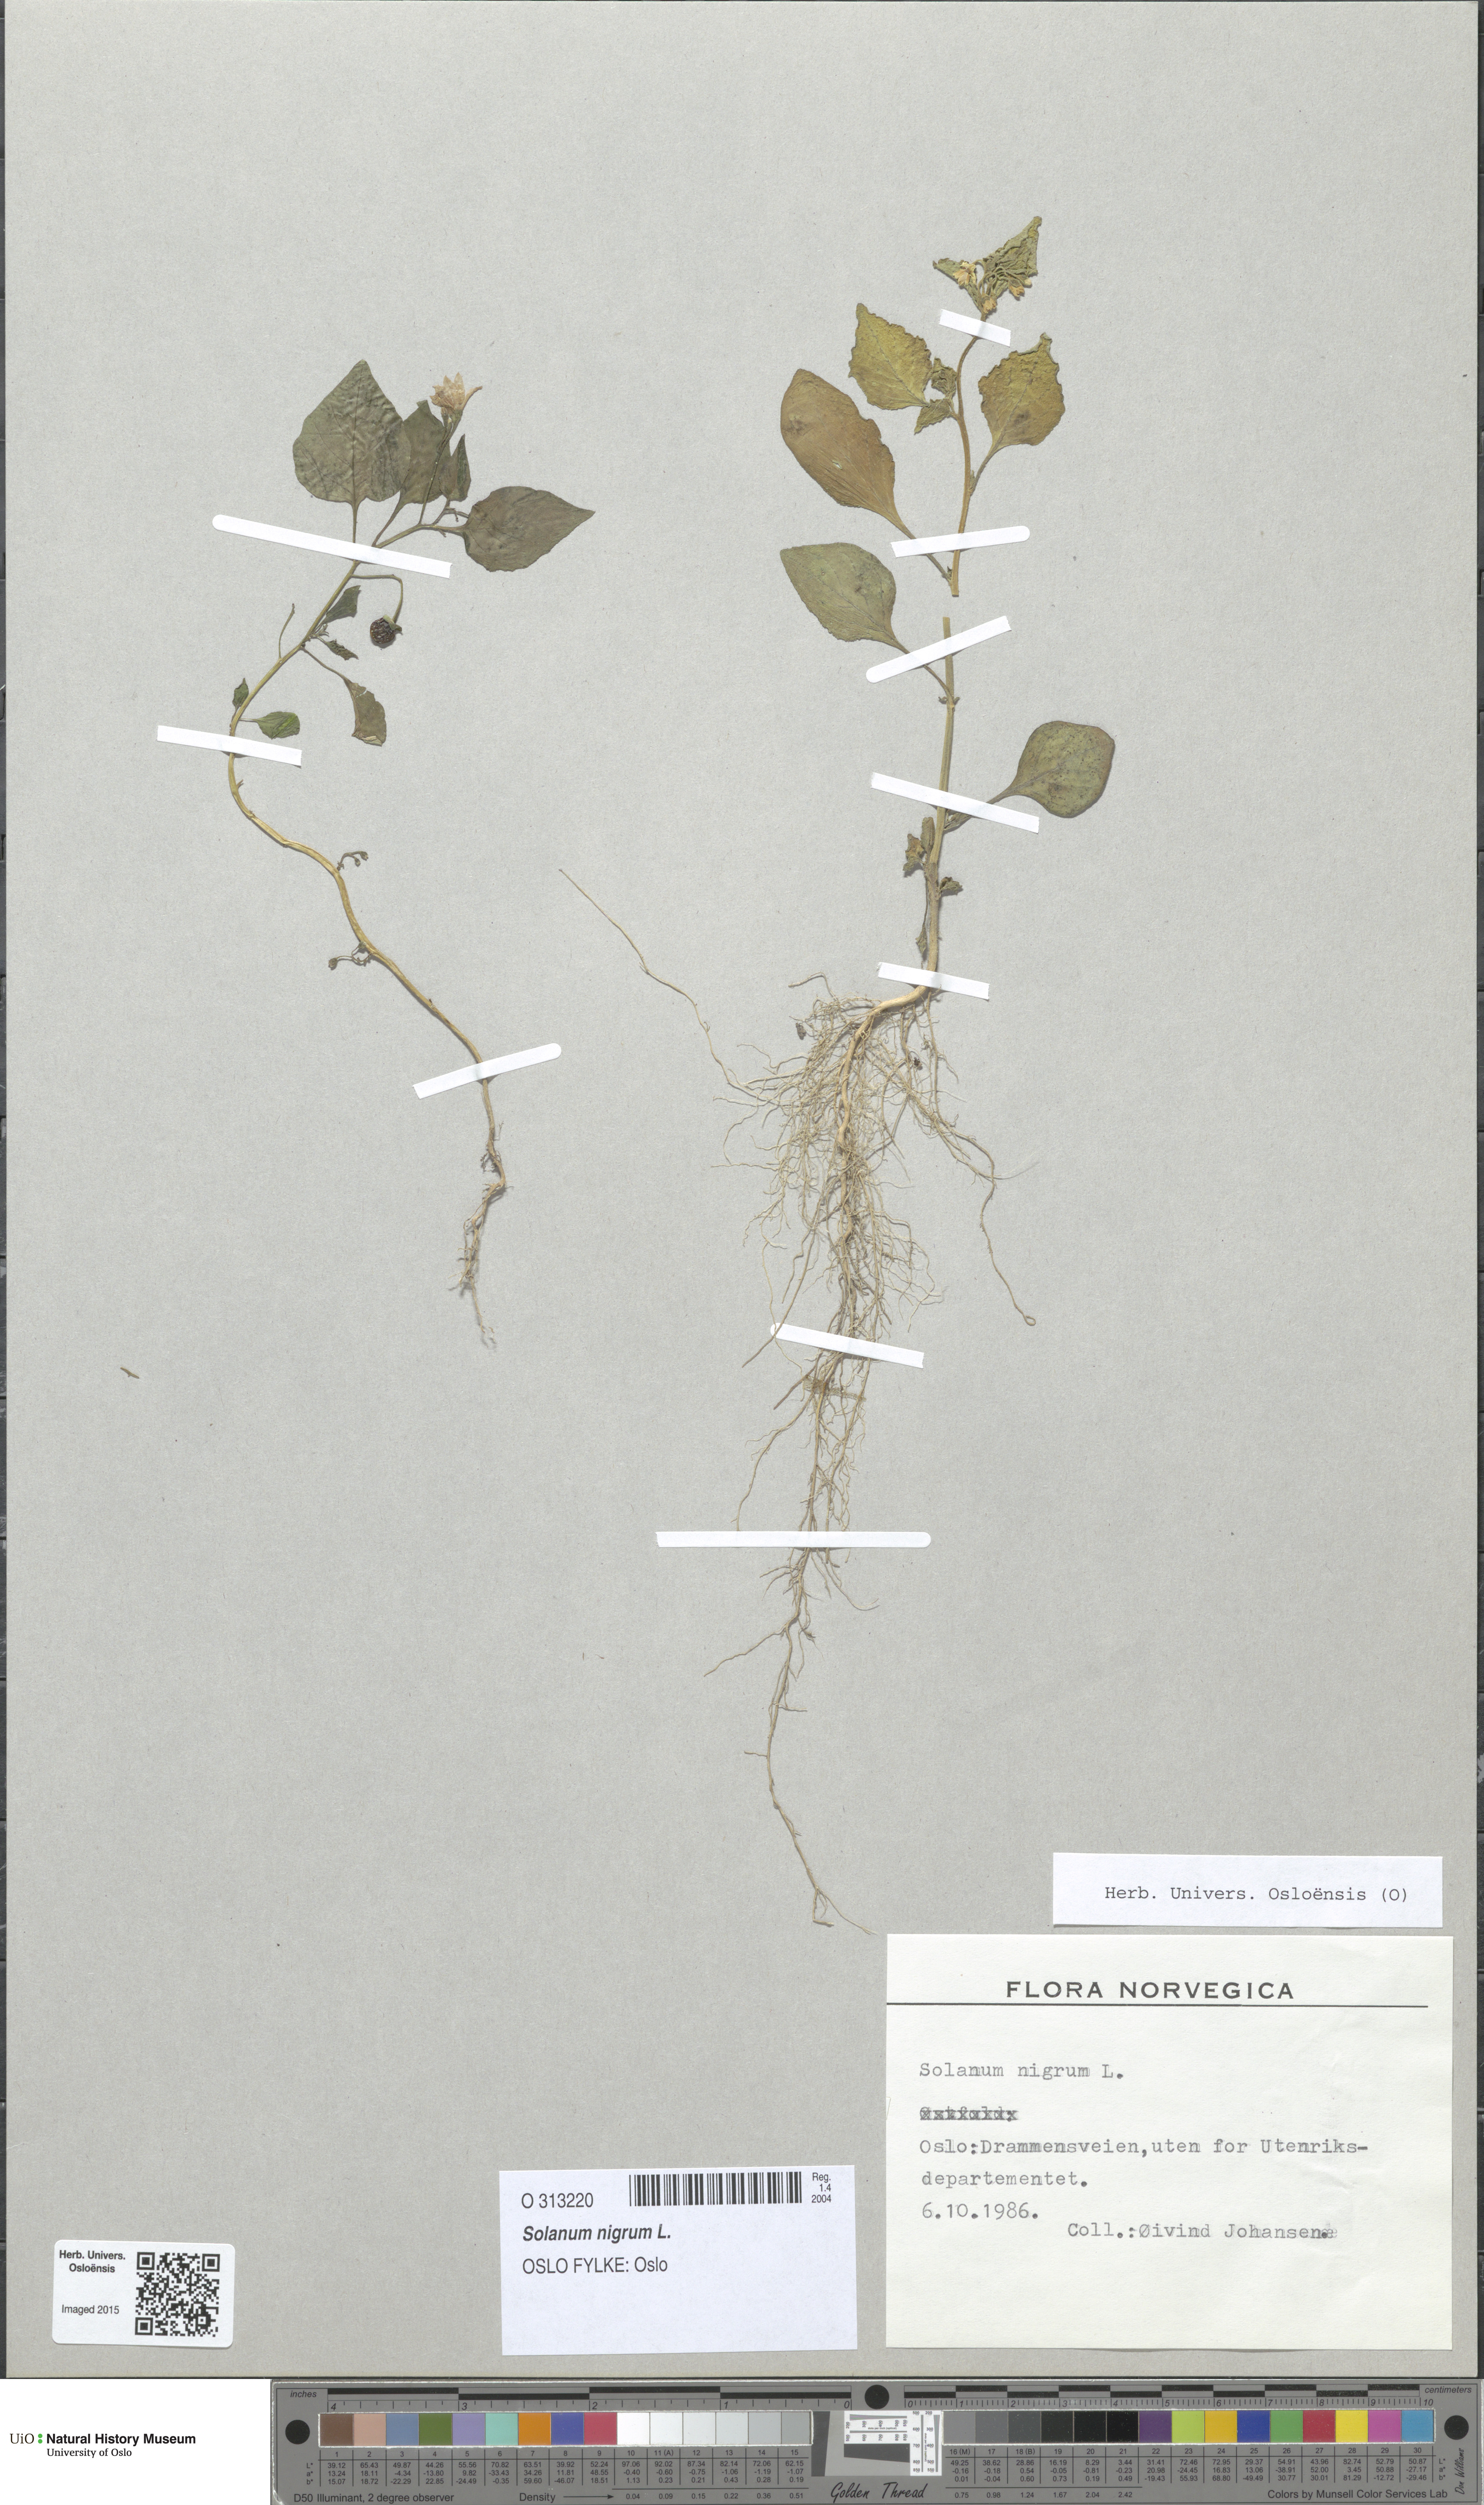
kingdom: Plantae
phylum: Tracheophyta
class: Magnoliopsida
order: Solanales
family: Solanaceae
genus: Solanum
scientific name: Solanum nigrum
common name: Black nightshade
